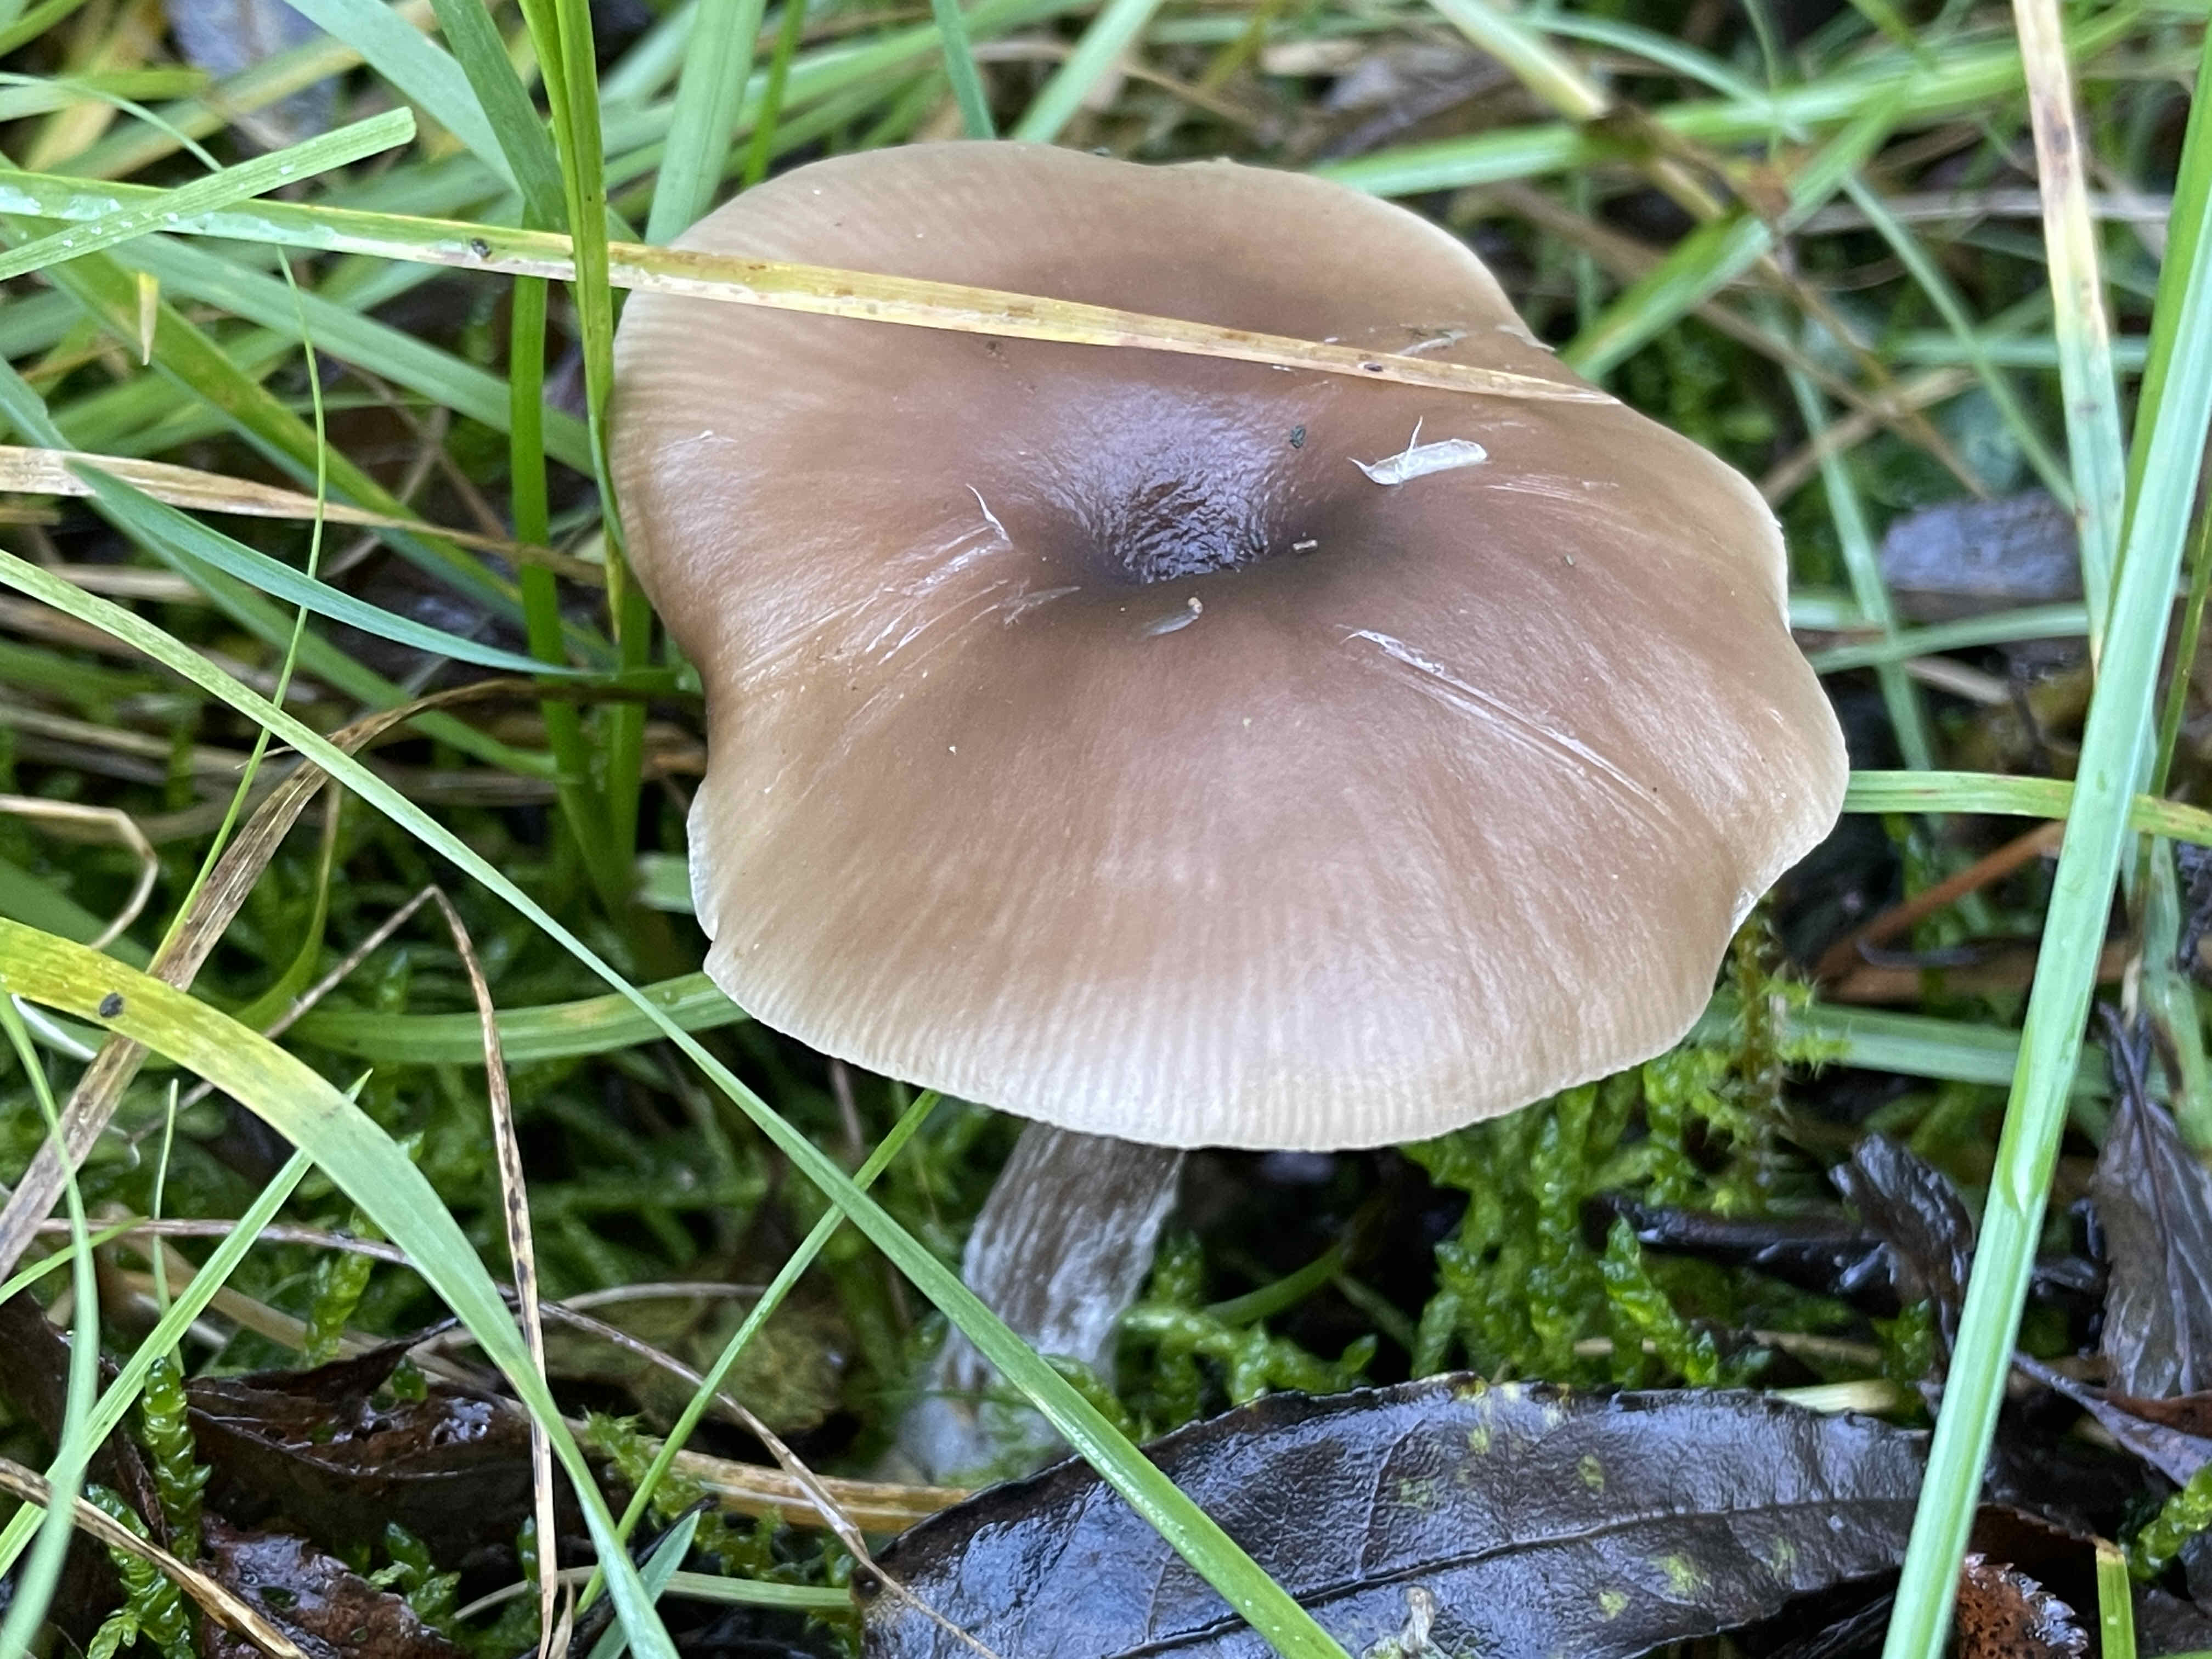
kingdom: Fungi
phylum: Basidiomycota
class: Agaricomycetes
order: Agaricales
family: Pseudoclitocybaceae
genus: Pseudoclitocybe
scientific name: Pseudoclitocybe expallens
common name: lille bægertragthat
